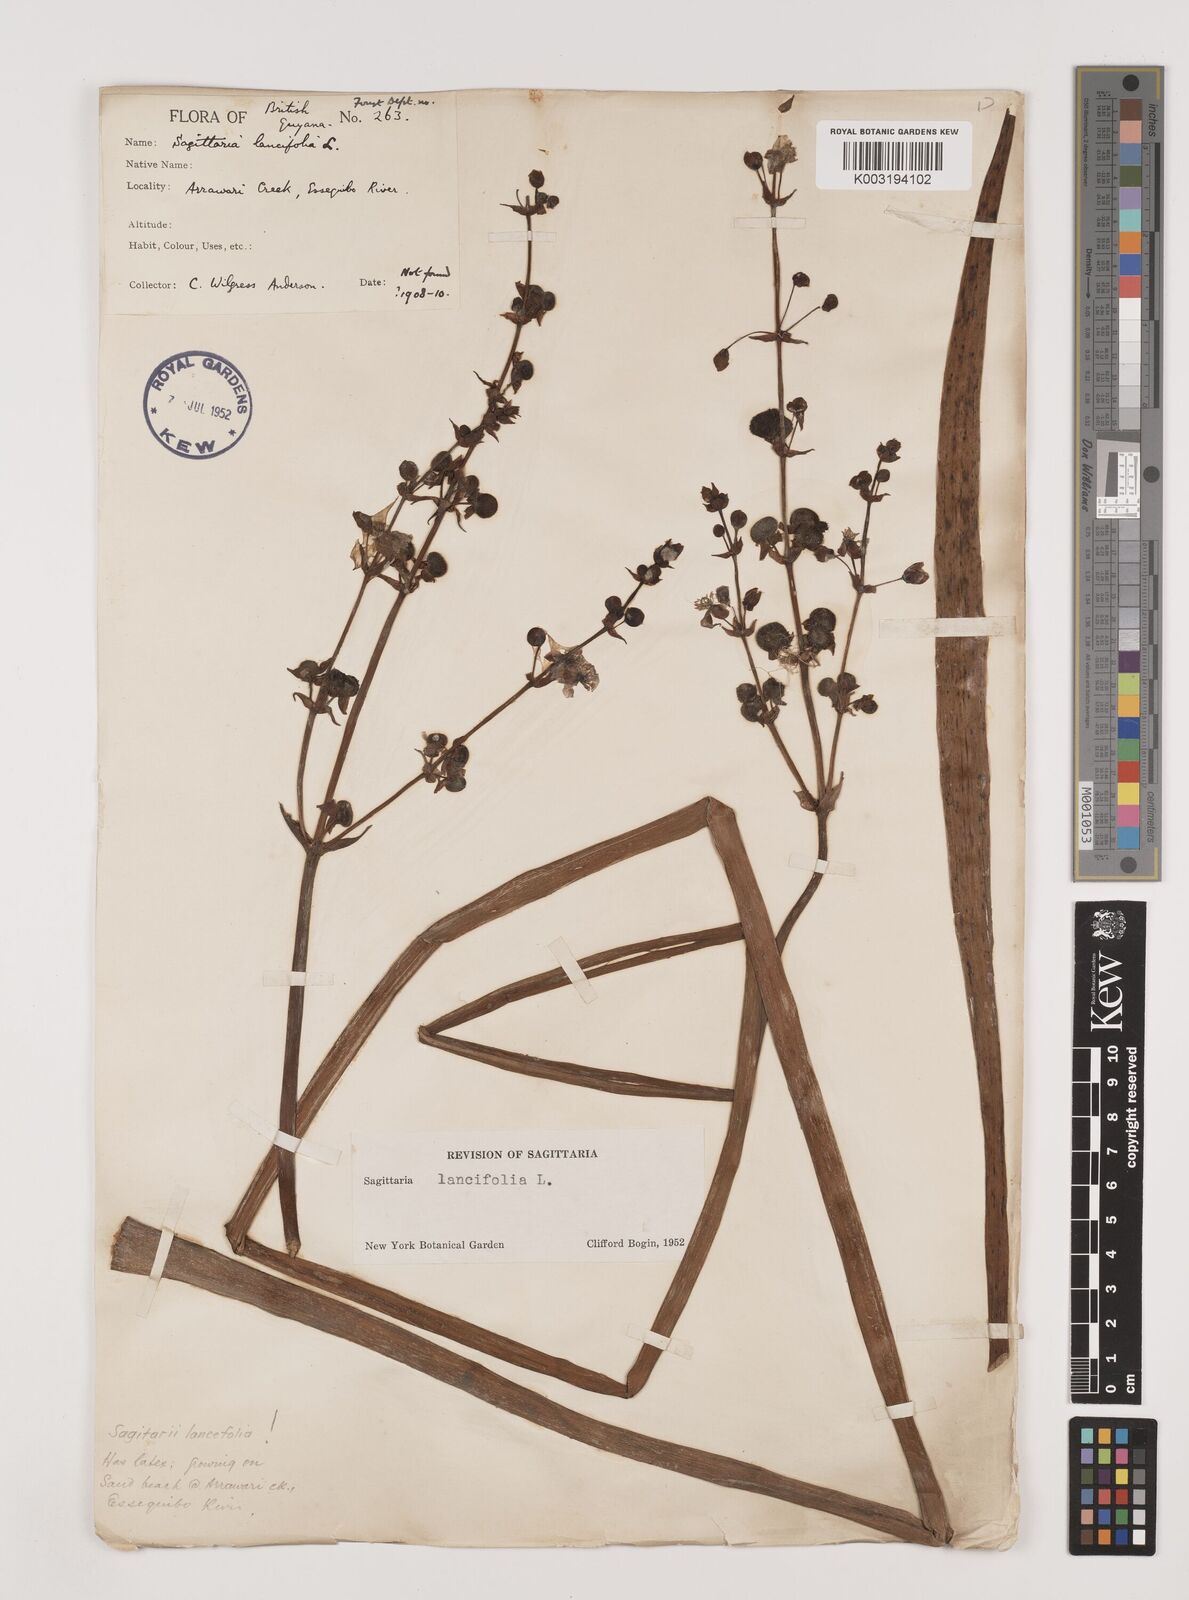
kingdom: Plantae
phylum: Tracheophyta
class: Liliopsida
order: Alismatales
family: Alismataceae
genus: Sagittaria
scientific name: Sagittaria lancifolia
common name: Lance-leaf arrowhead
